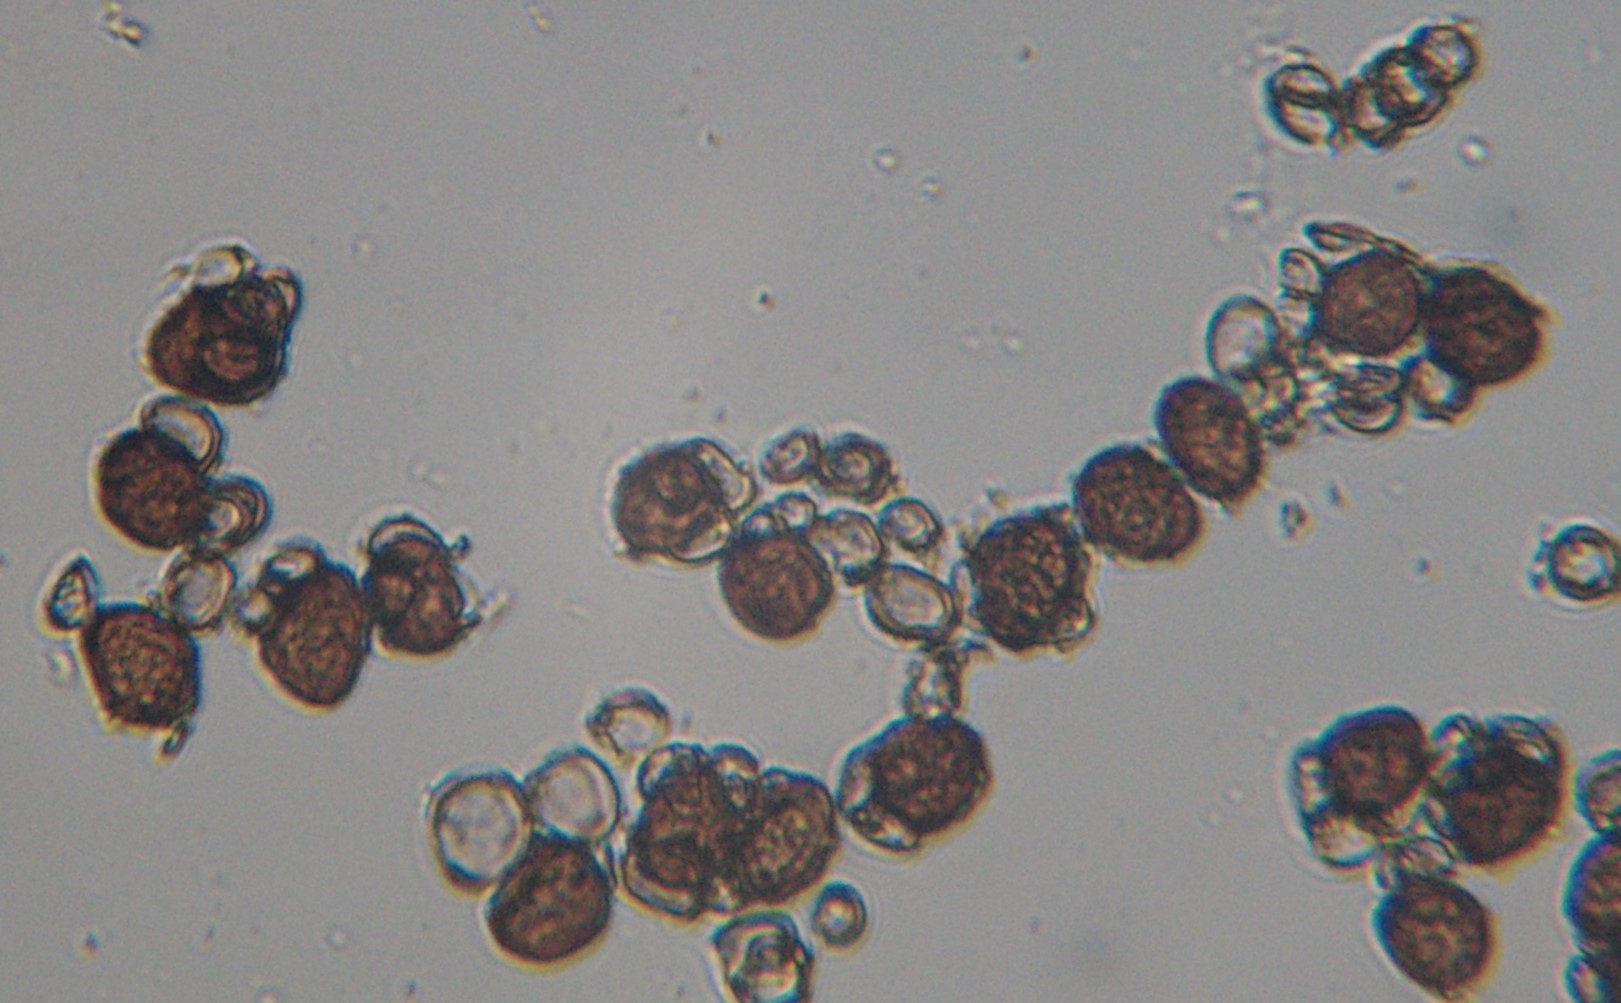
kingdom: Fungi
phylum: Basidiomycota
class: Ustilaginomycetes
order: Urocystidales
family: Urocystidaceae
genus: Urocystis
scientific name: Urocystis anemones
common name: anemone-brand
